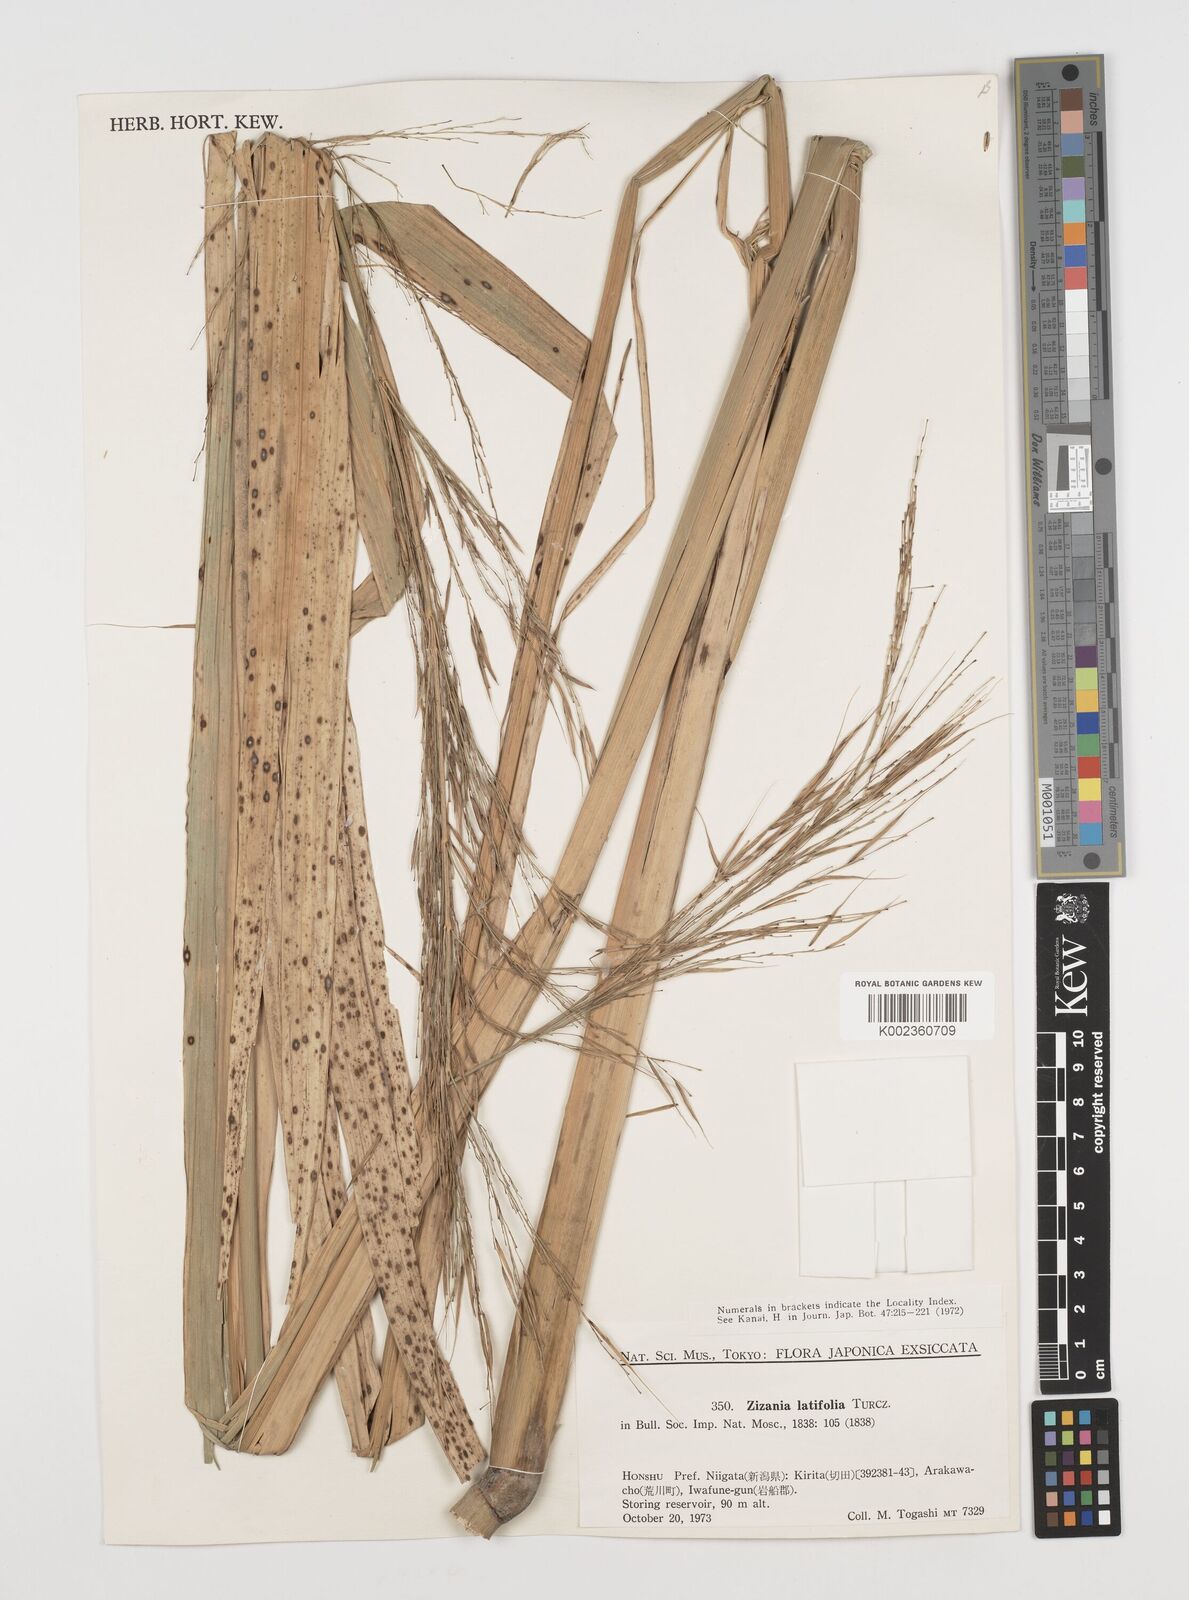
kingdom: Plantae
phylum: Tracheophyta
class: Liliopsida
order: Poales
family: Poaceae
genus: Zizania
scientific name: Zizania latifolia
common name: Manchurian wildrice
